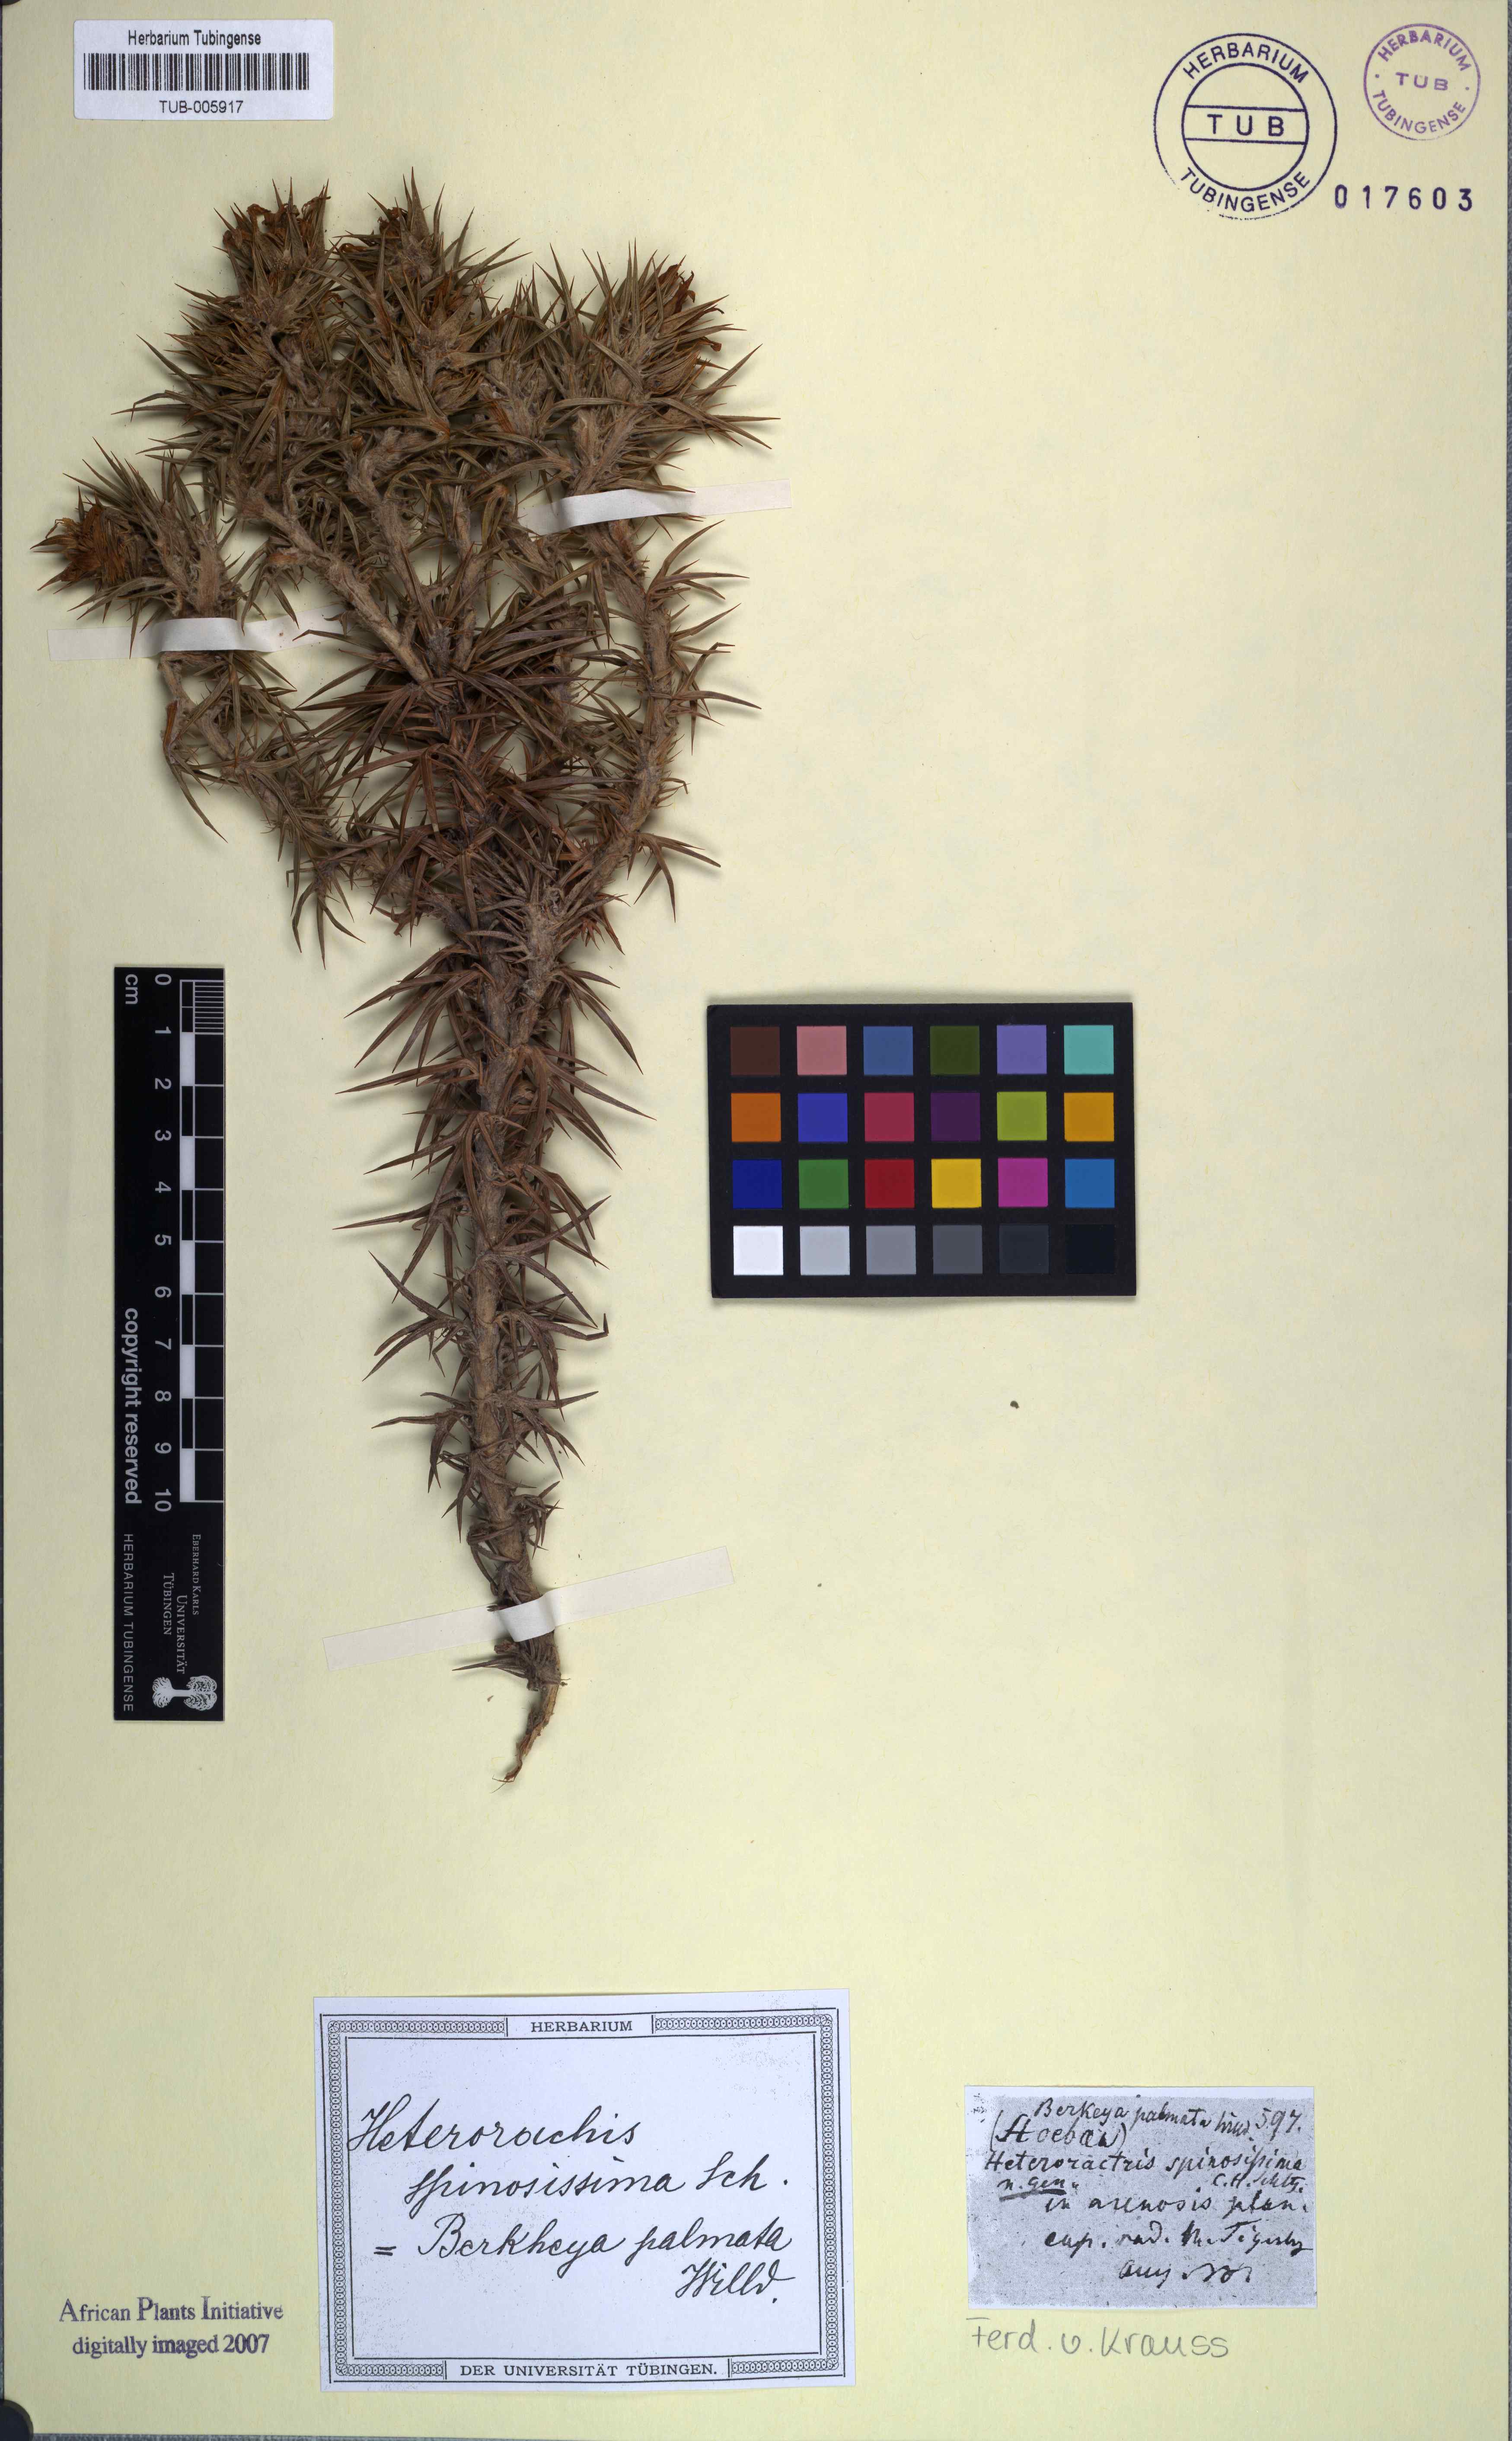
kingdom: Plantae
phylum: Tracheophyta
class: Magnoliopsida
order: Asterales
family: Asteraceae
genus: Heterorhachis
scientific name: Heterorhachis aculeata
